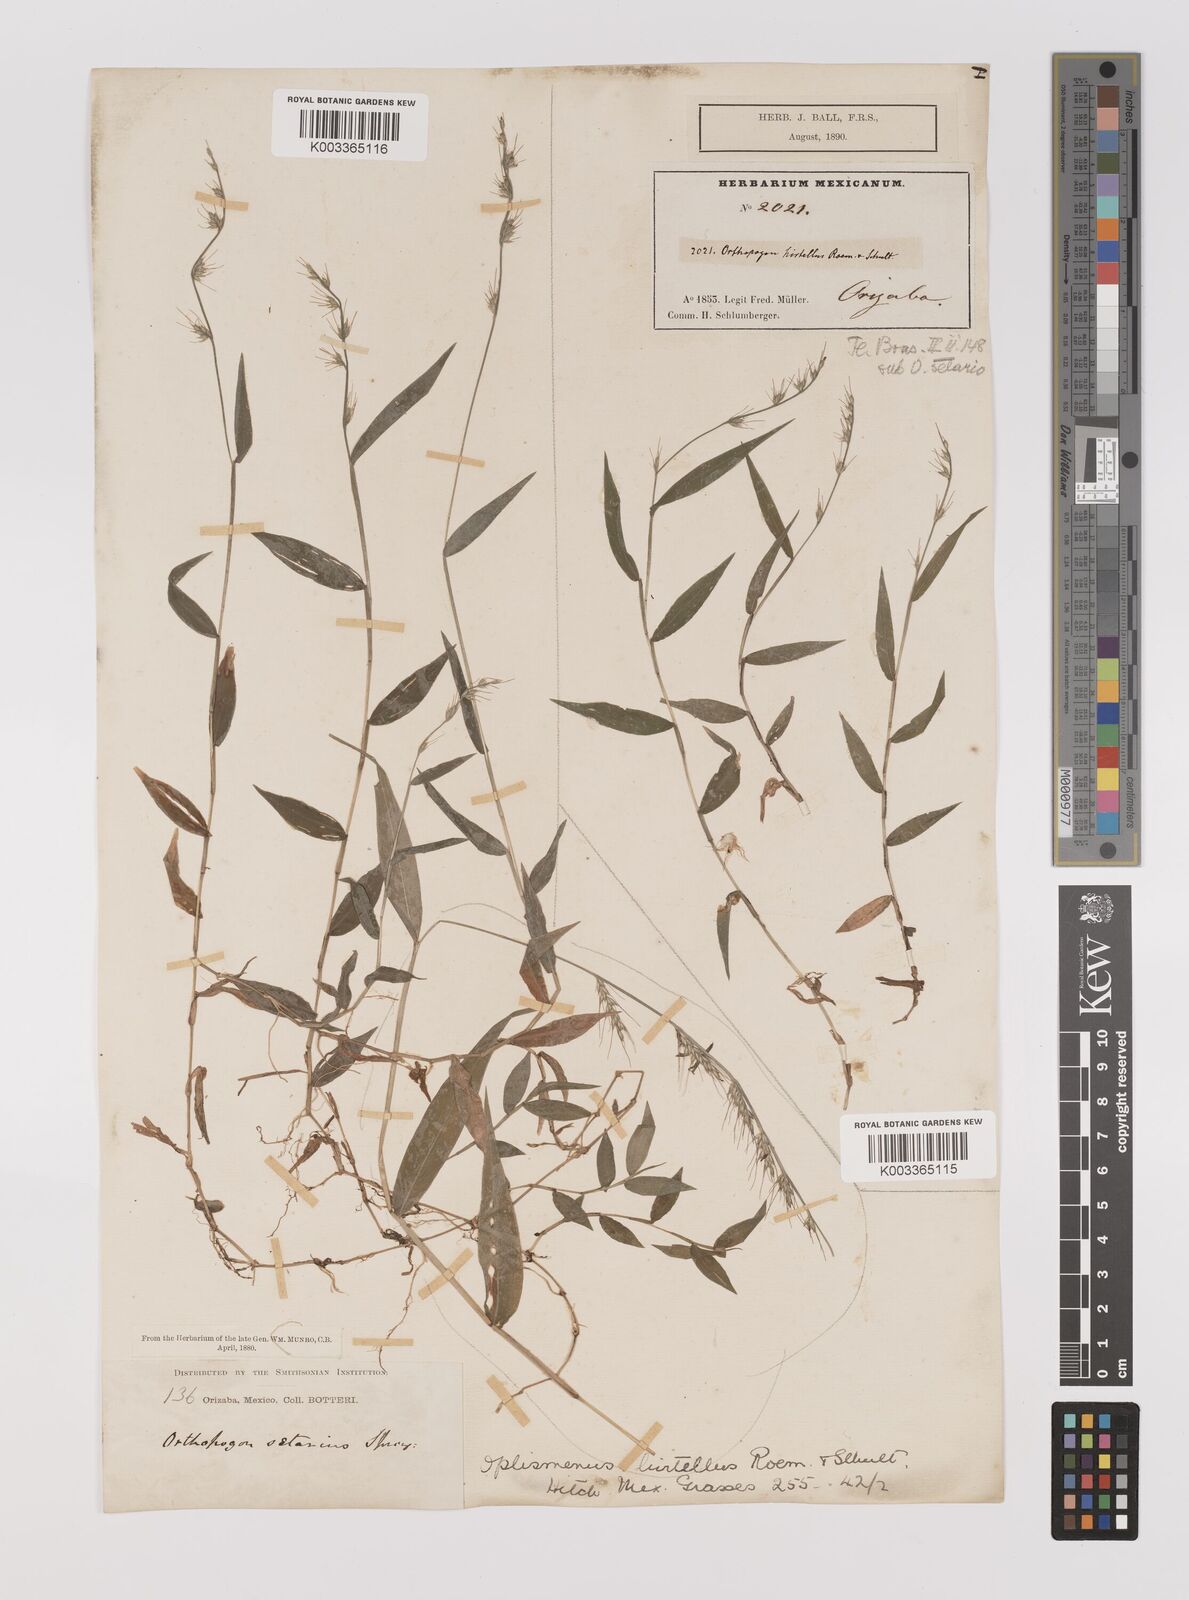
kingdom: Plantae
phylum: Tracheophyta
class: Liliopsida
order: Poales
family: Poaceae
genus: Oplismenus
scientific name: Oplismenus hirtellus
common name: Basketgrass
